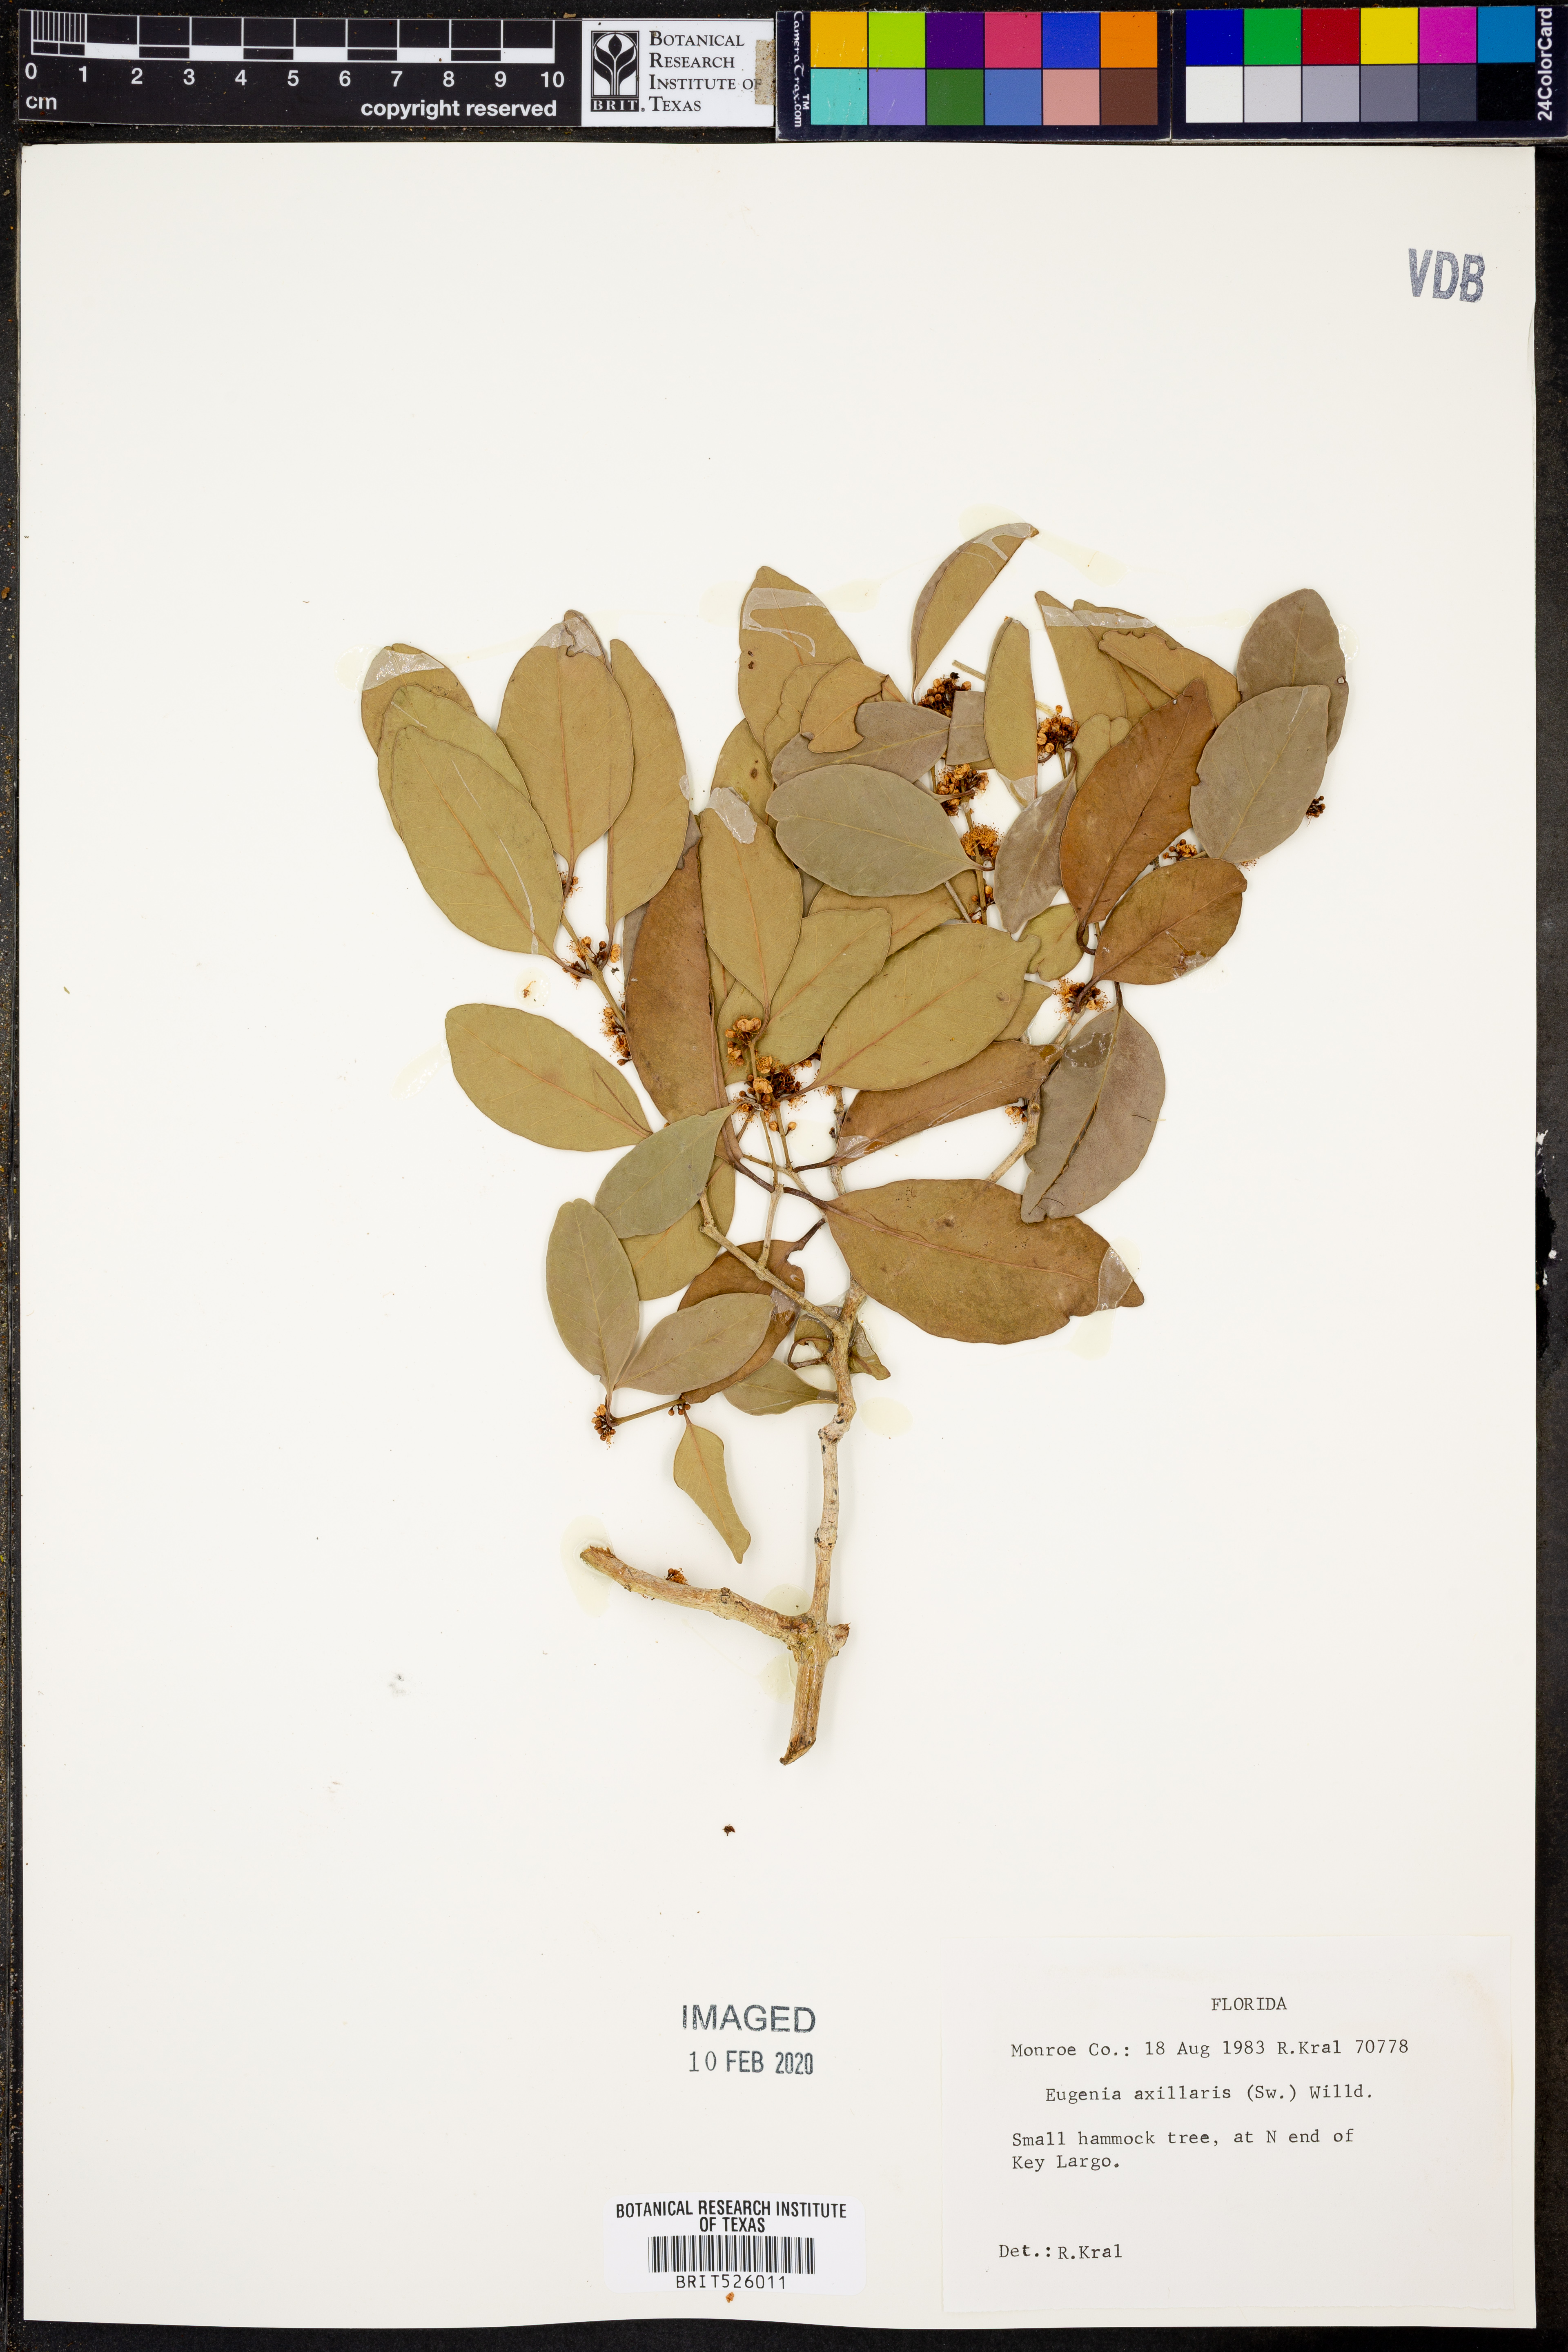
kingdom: Plantae
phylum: Tracheophyta
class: Magnoliopsida
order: Myrtales
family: Myrtaceae
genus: Eugenia
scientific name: Eugenia axillaris
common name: Choaky berry
